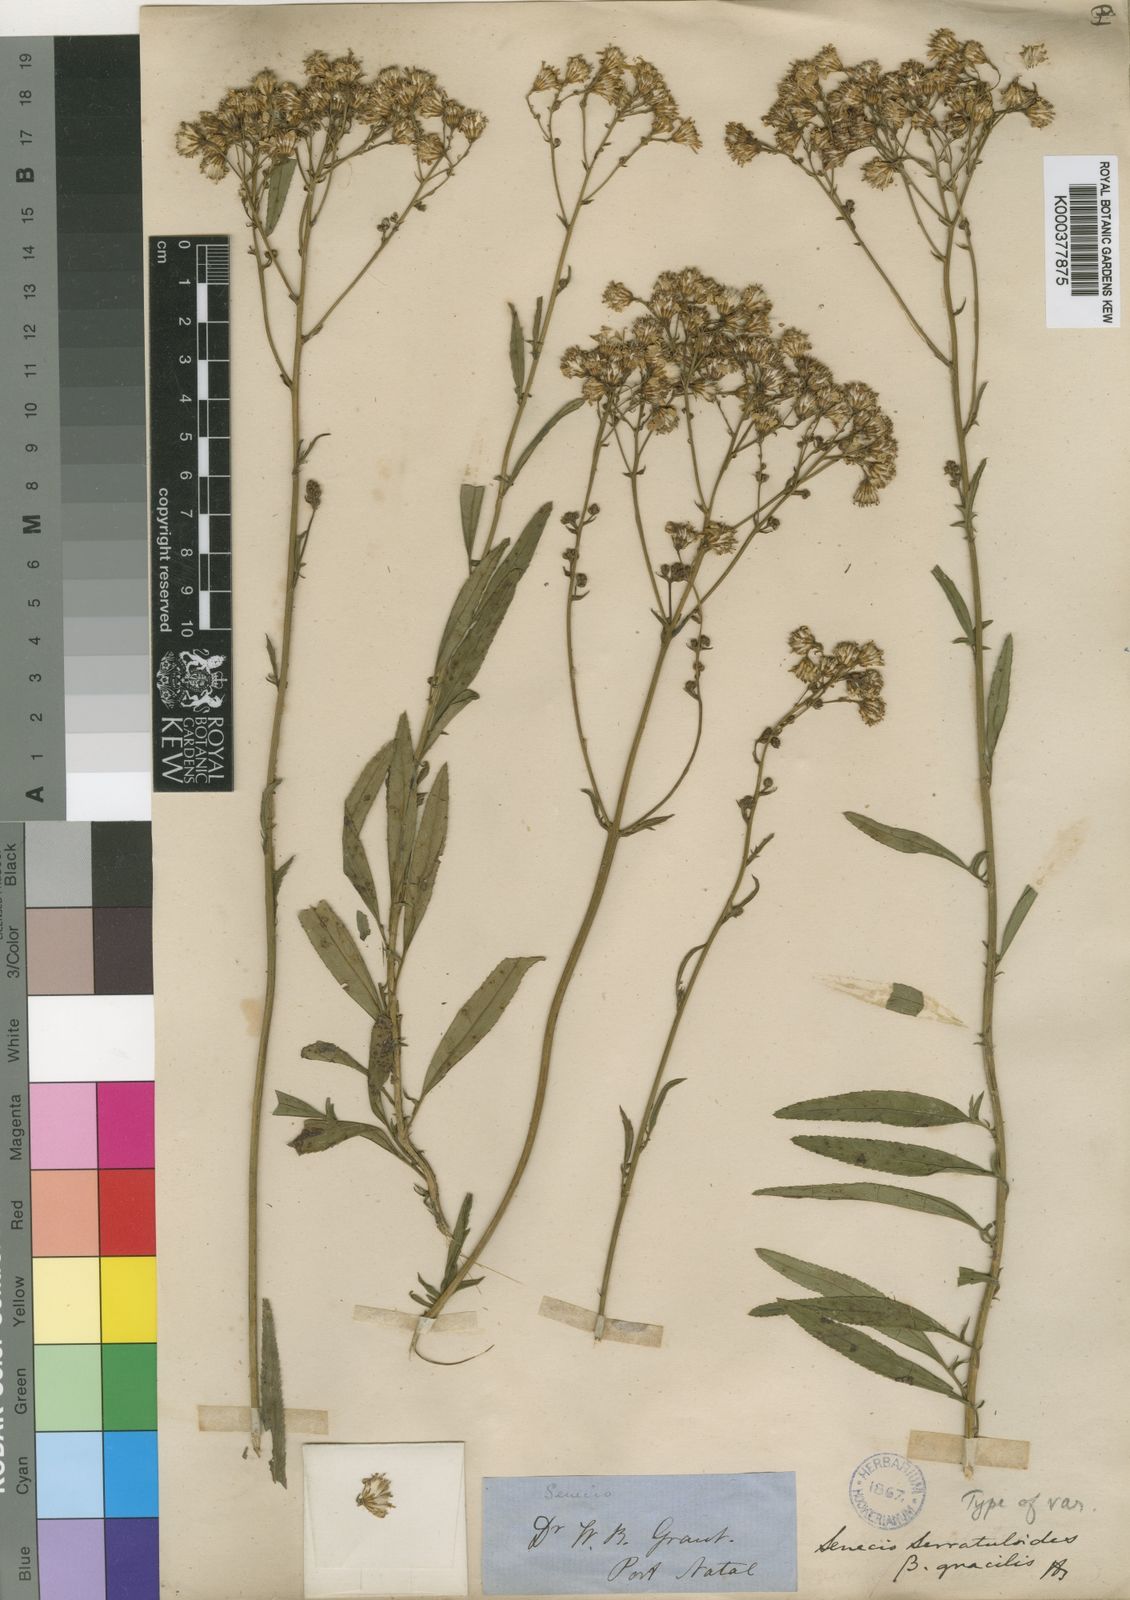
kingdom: Plantae
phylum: Tracheophyta
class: Magnoliopsida
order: Asterales
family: Asteraceae
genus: Senecio
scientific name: Senecio serratuloides
